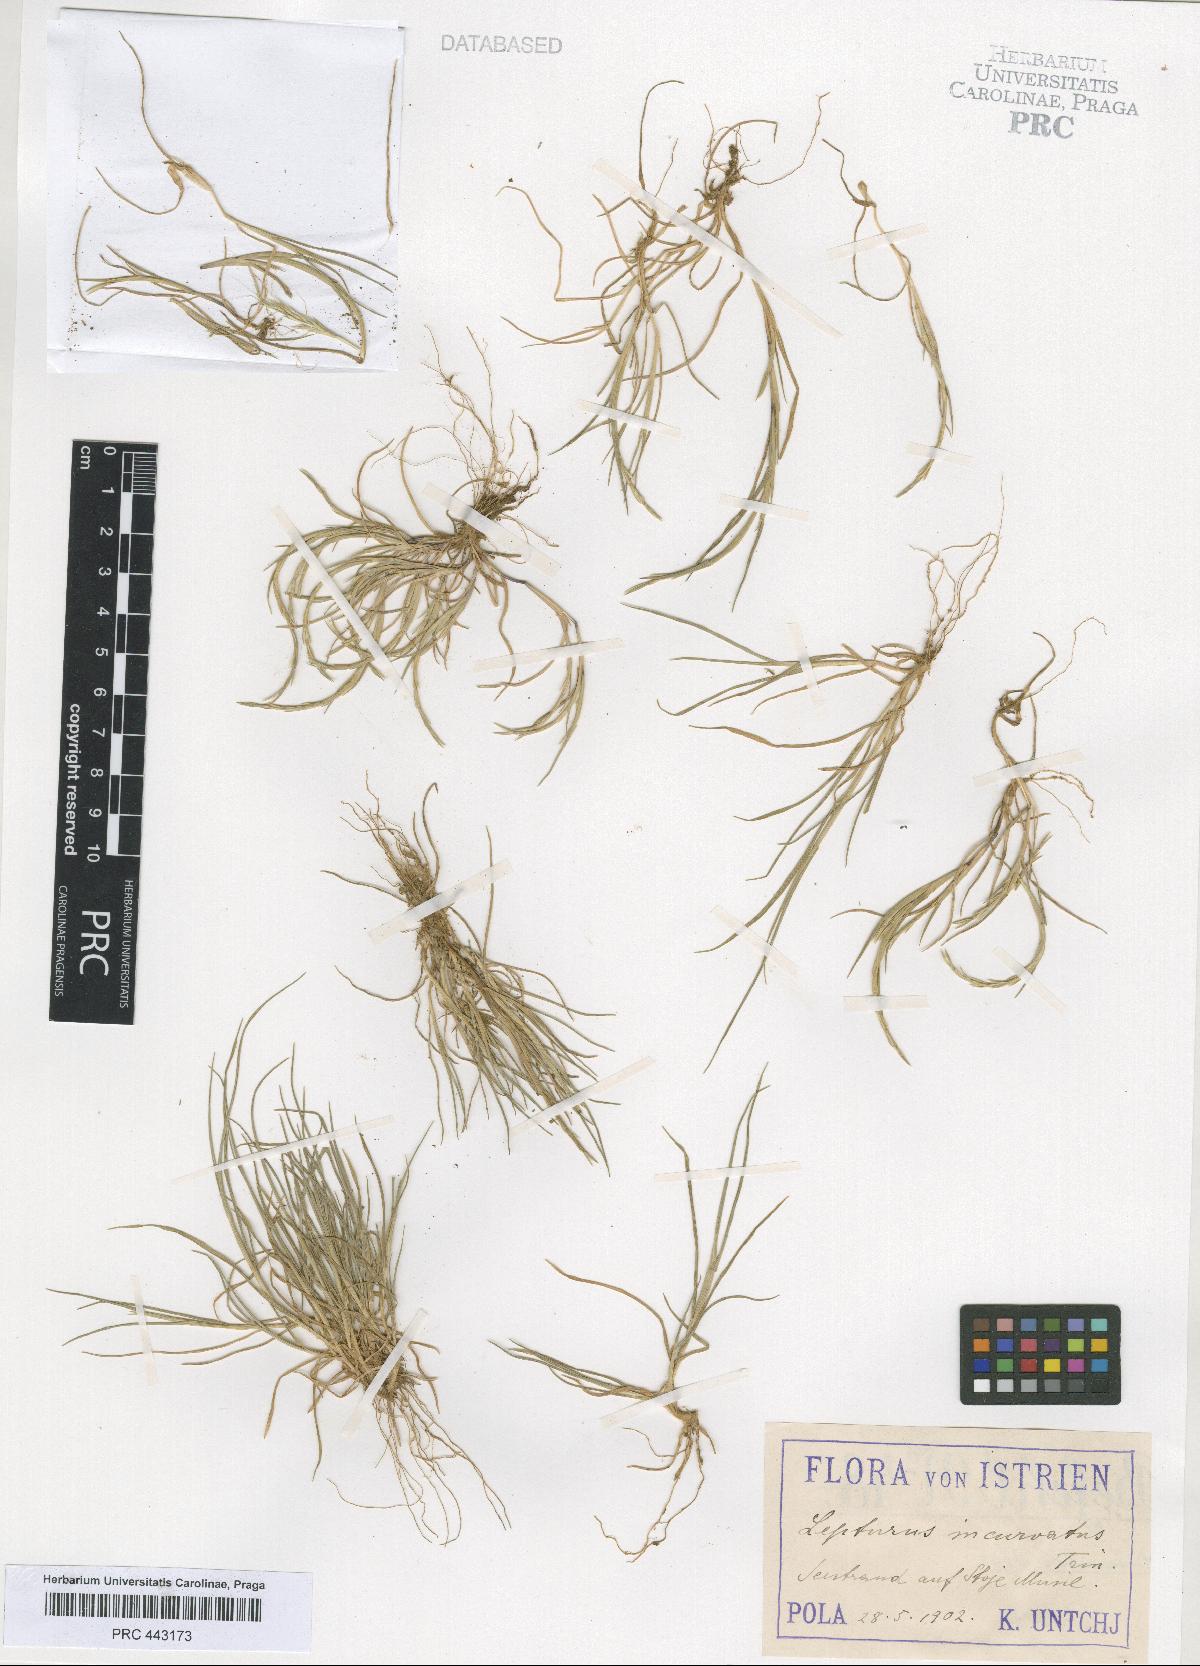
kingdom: Plantae
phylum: Tracheophyta
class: Liliopsida
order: Poales
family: Poaceae
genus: Parapholis
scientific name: Parapholis incurva
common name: Curved sicklegrass
